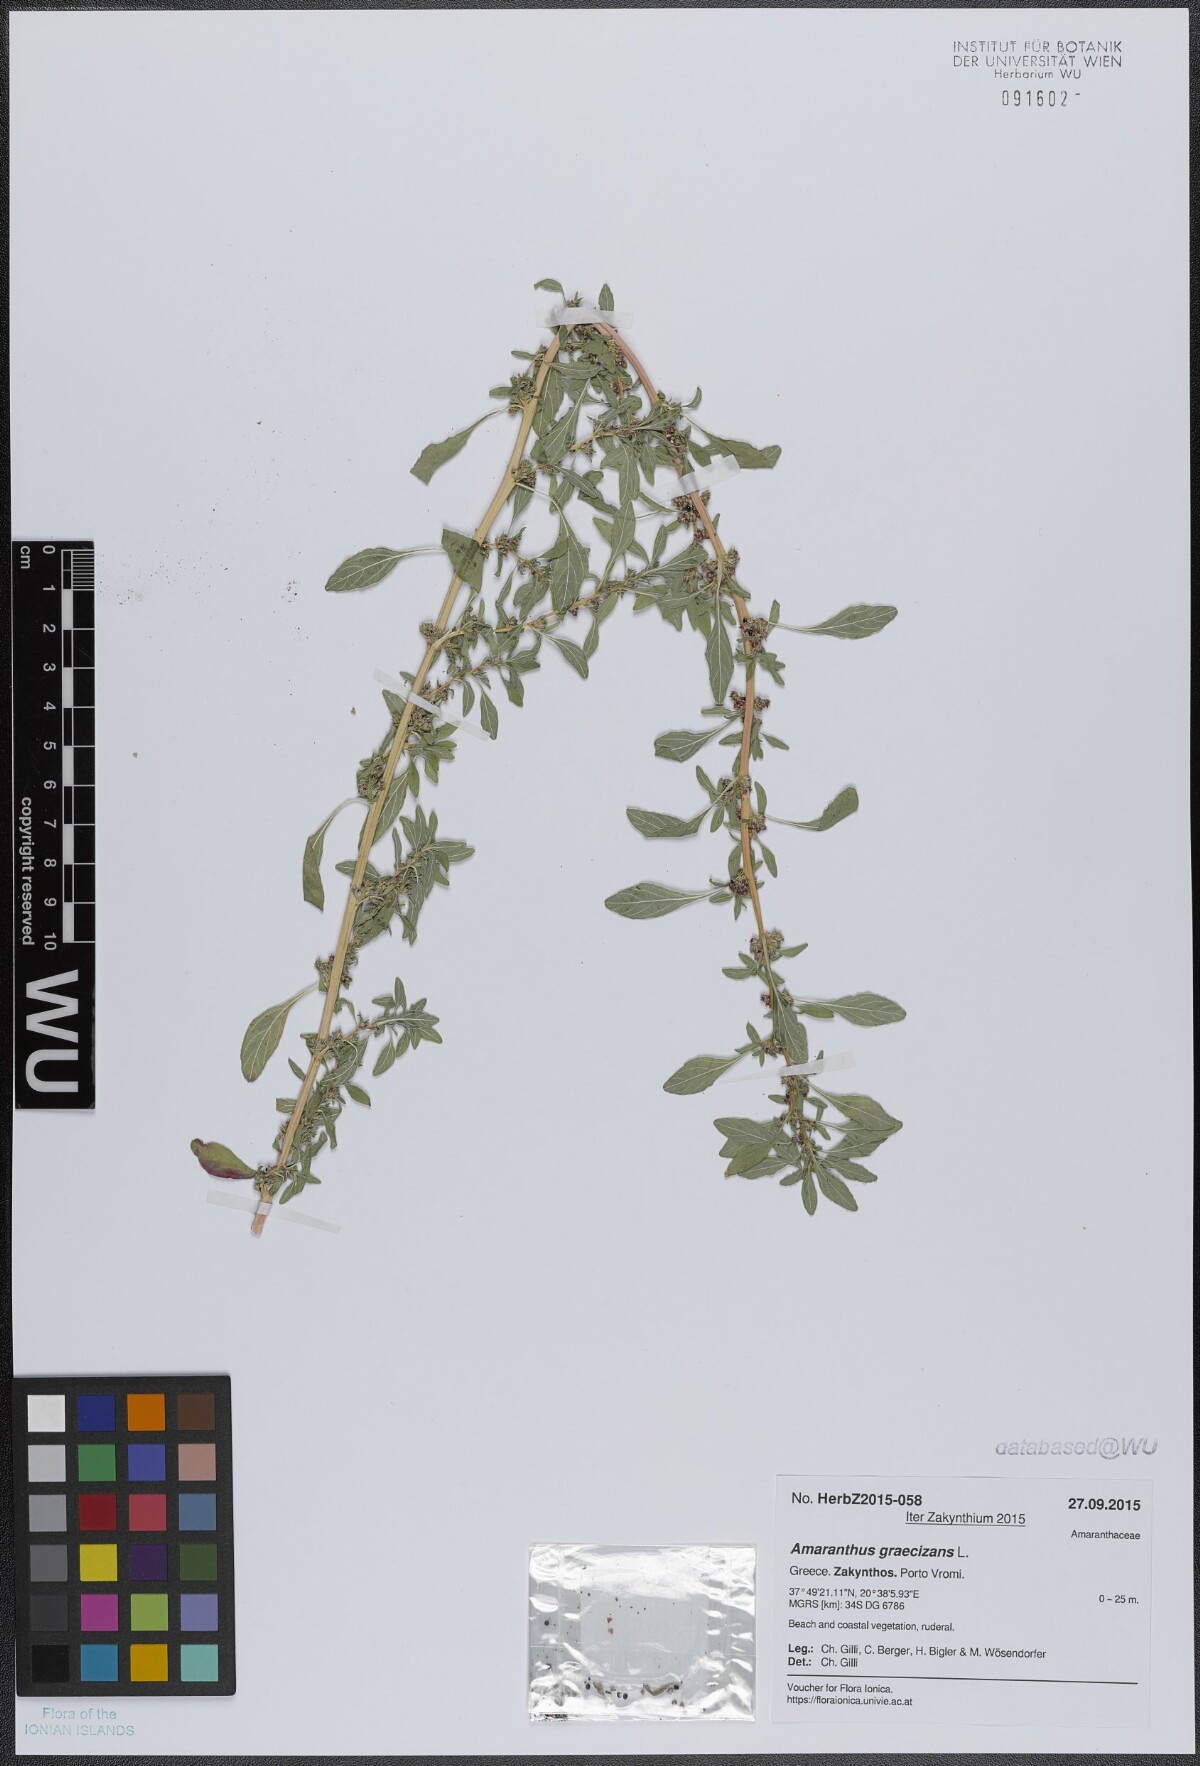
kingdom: Plantae
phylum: Tracheophyta
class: Magnoliopsida
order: Caryophyllales
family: Amaranthaceae
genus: Amaranthus
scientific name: Amaranthus graecizans
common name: Mediterranean amaranth
